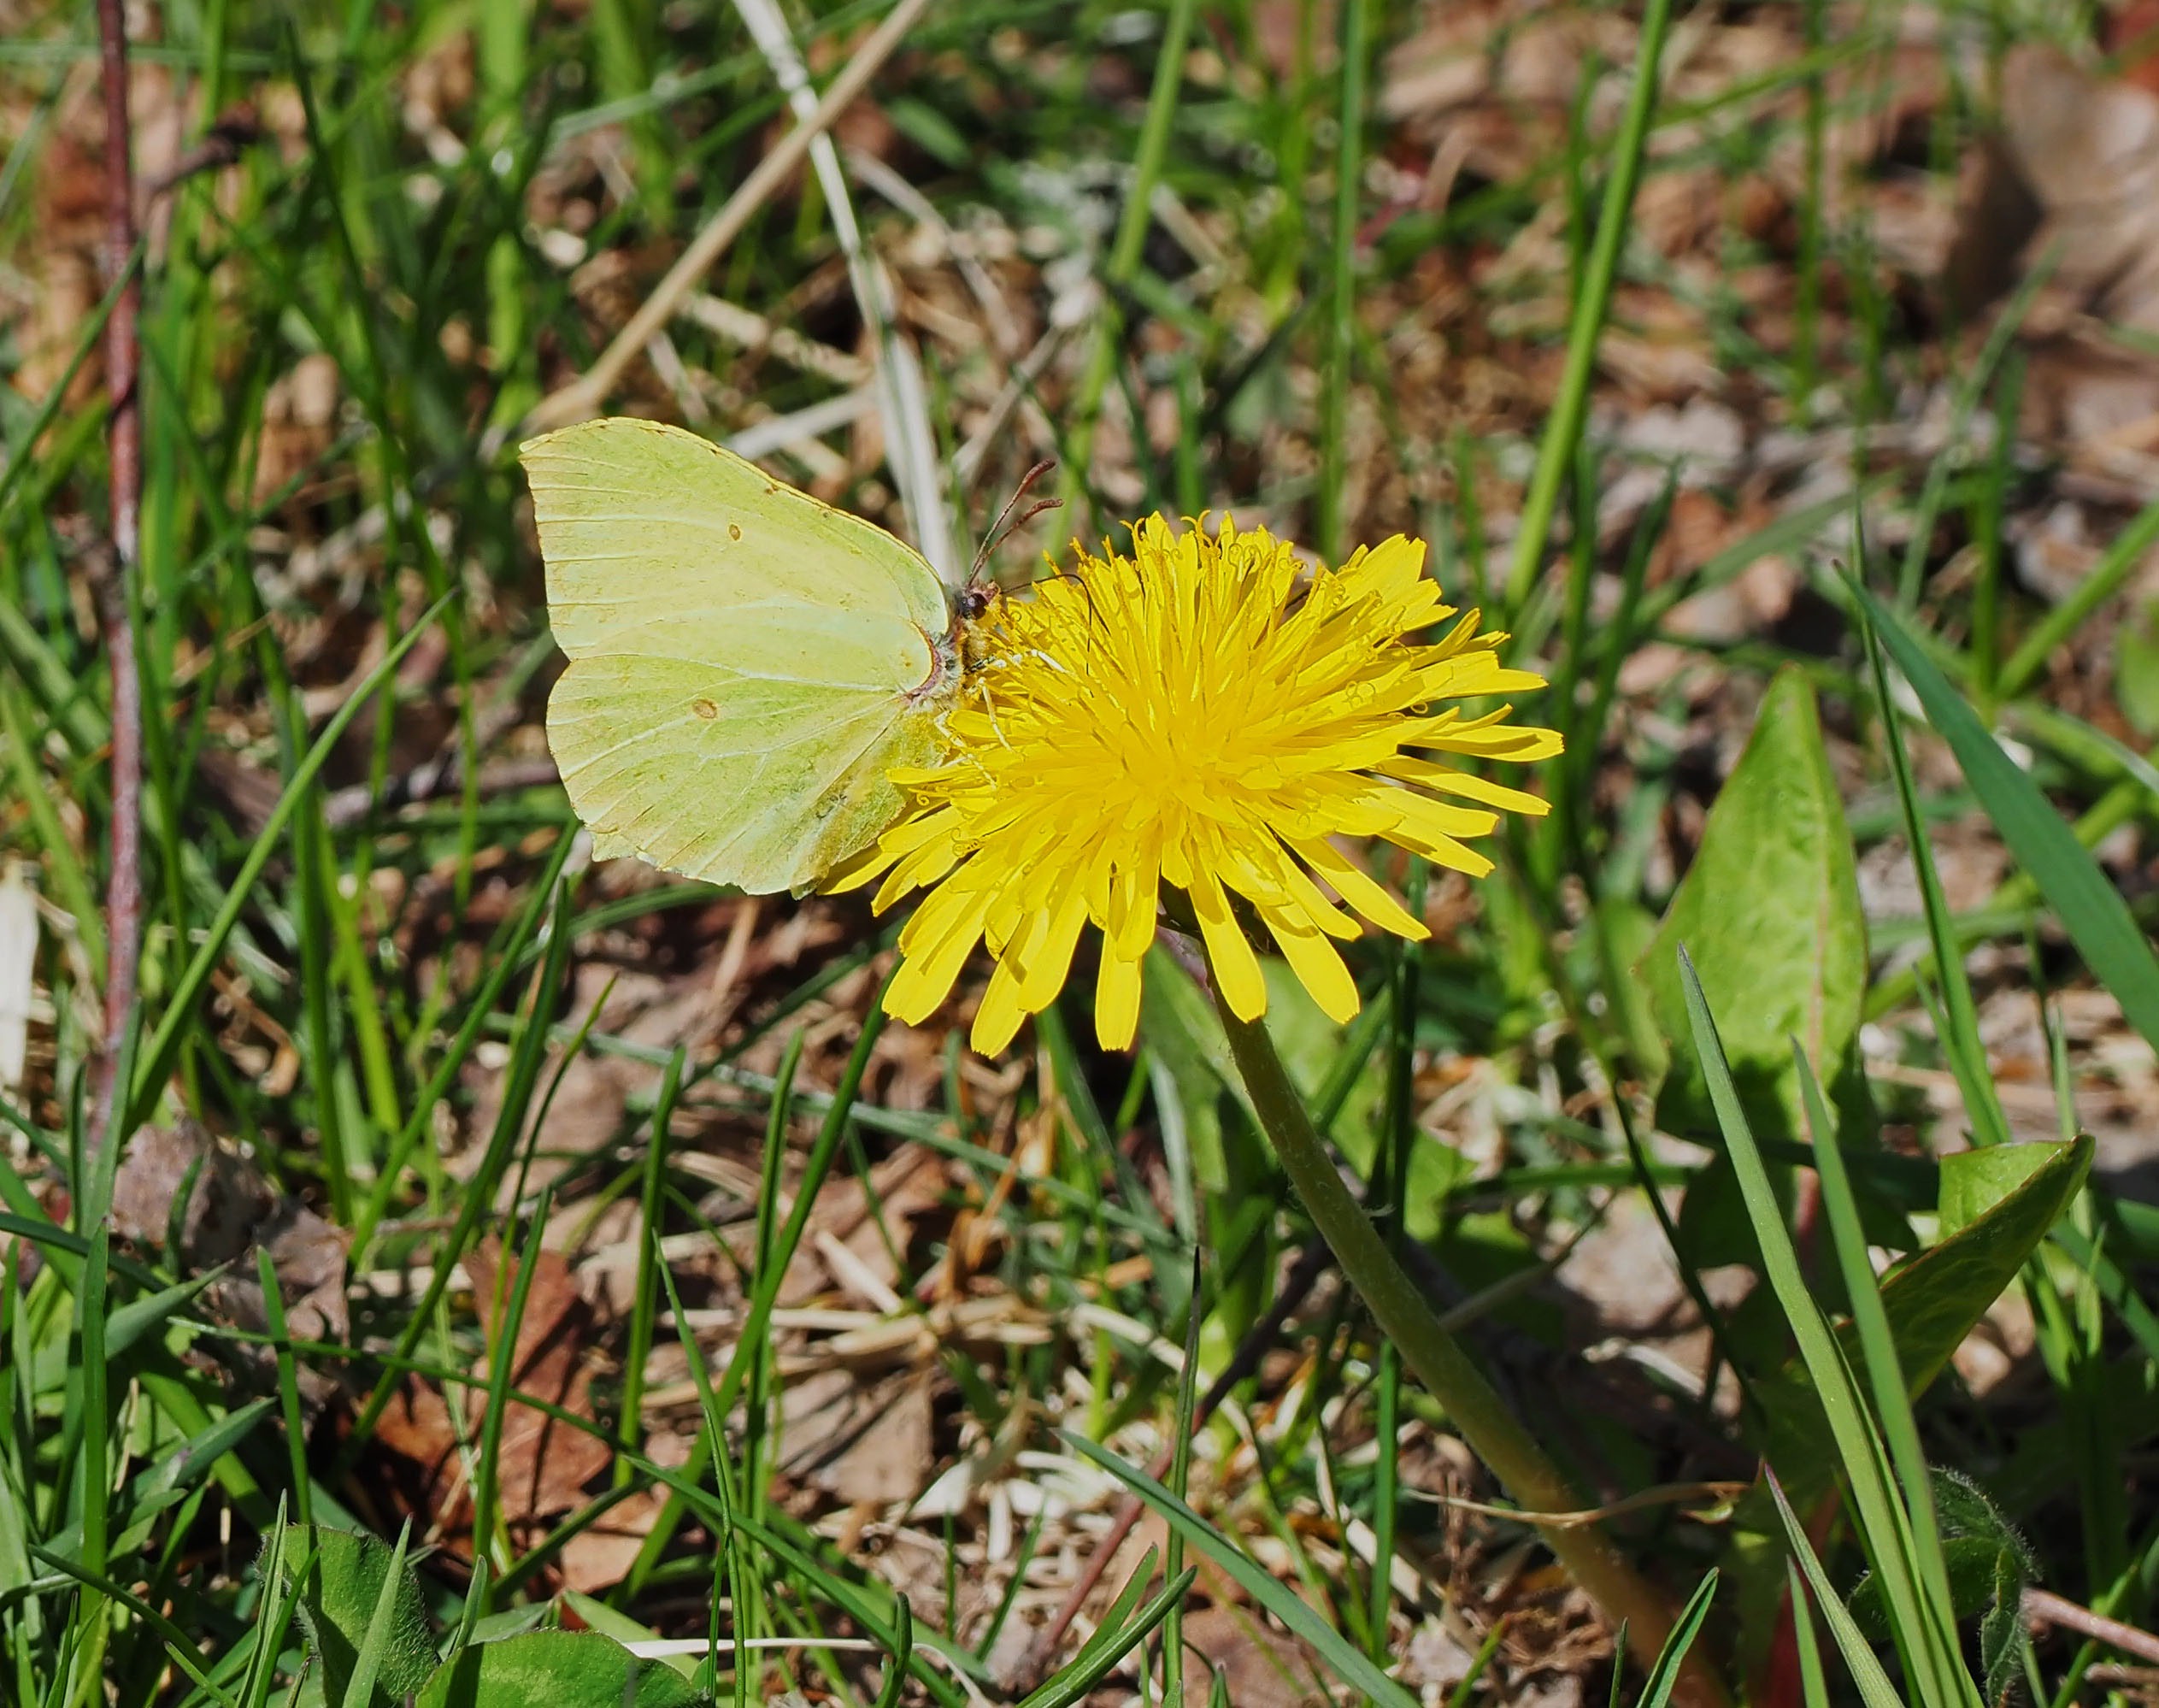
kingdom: Animalia
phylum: Arthropoda
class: Insecta
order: Lepidoptera
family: Pieridae
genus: Gonepteryx
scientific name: Gonepteryx rhamni
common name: Citronsommerfugl
